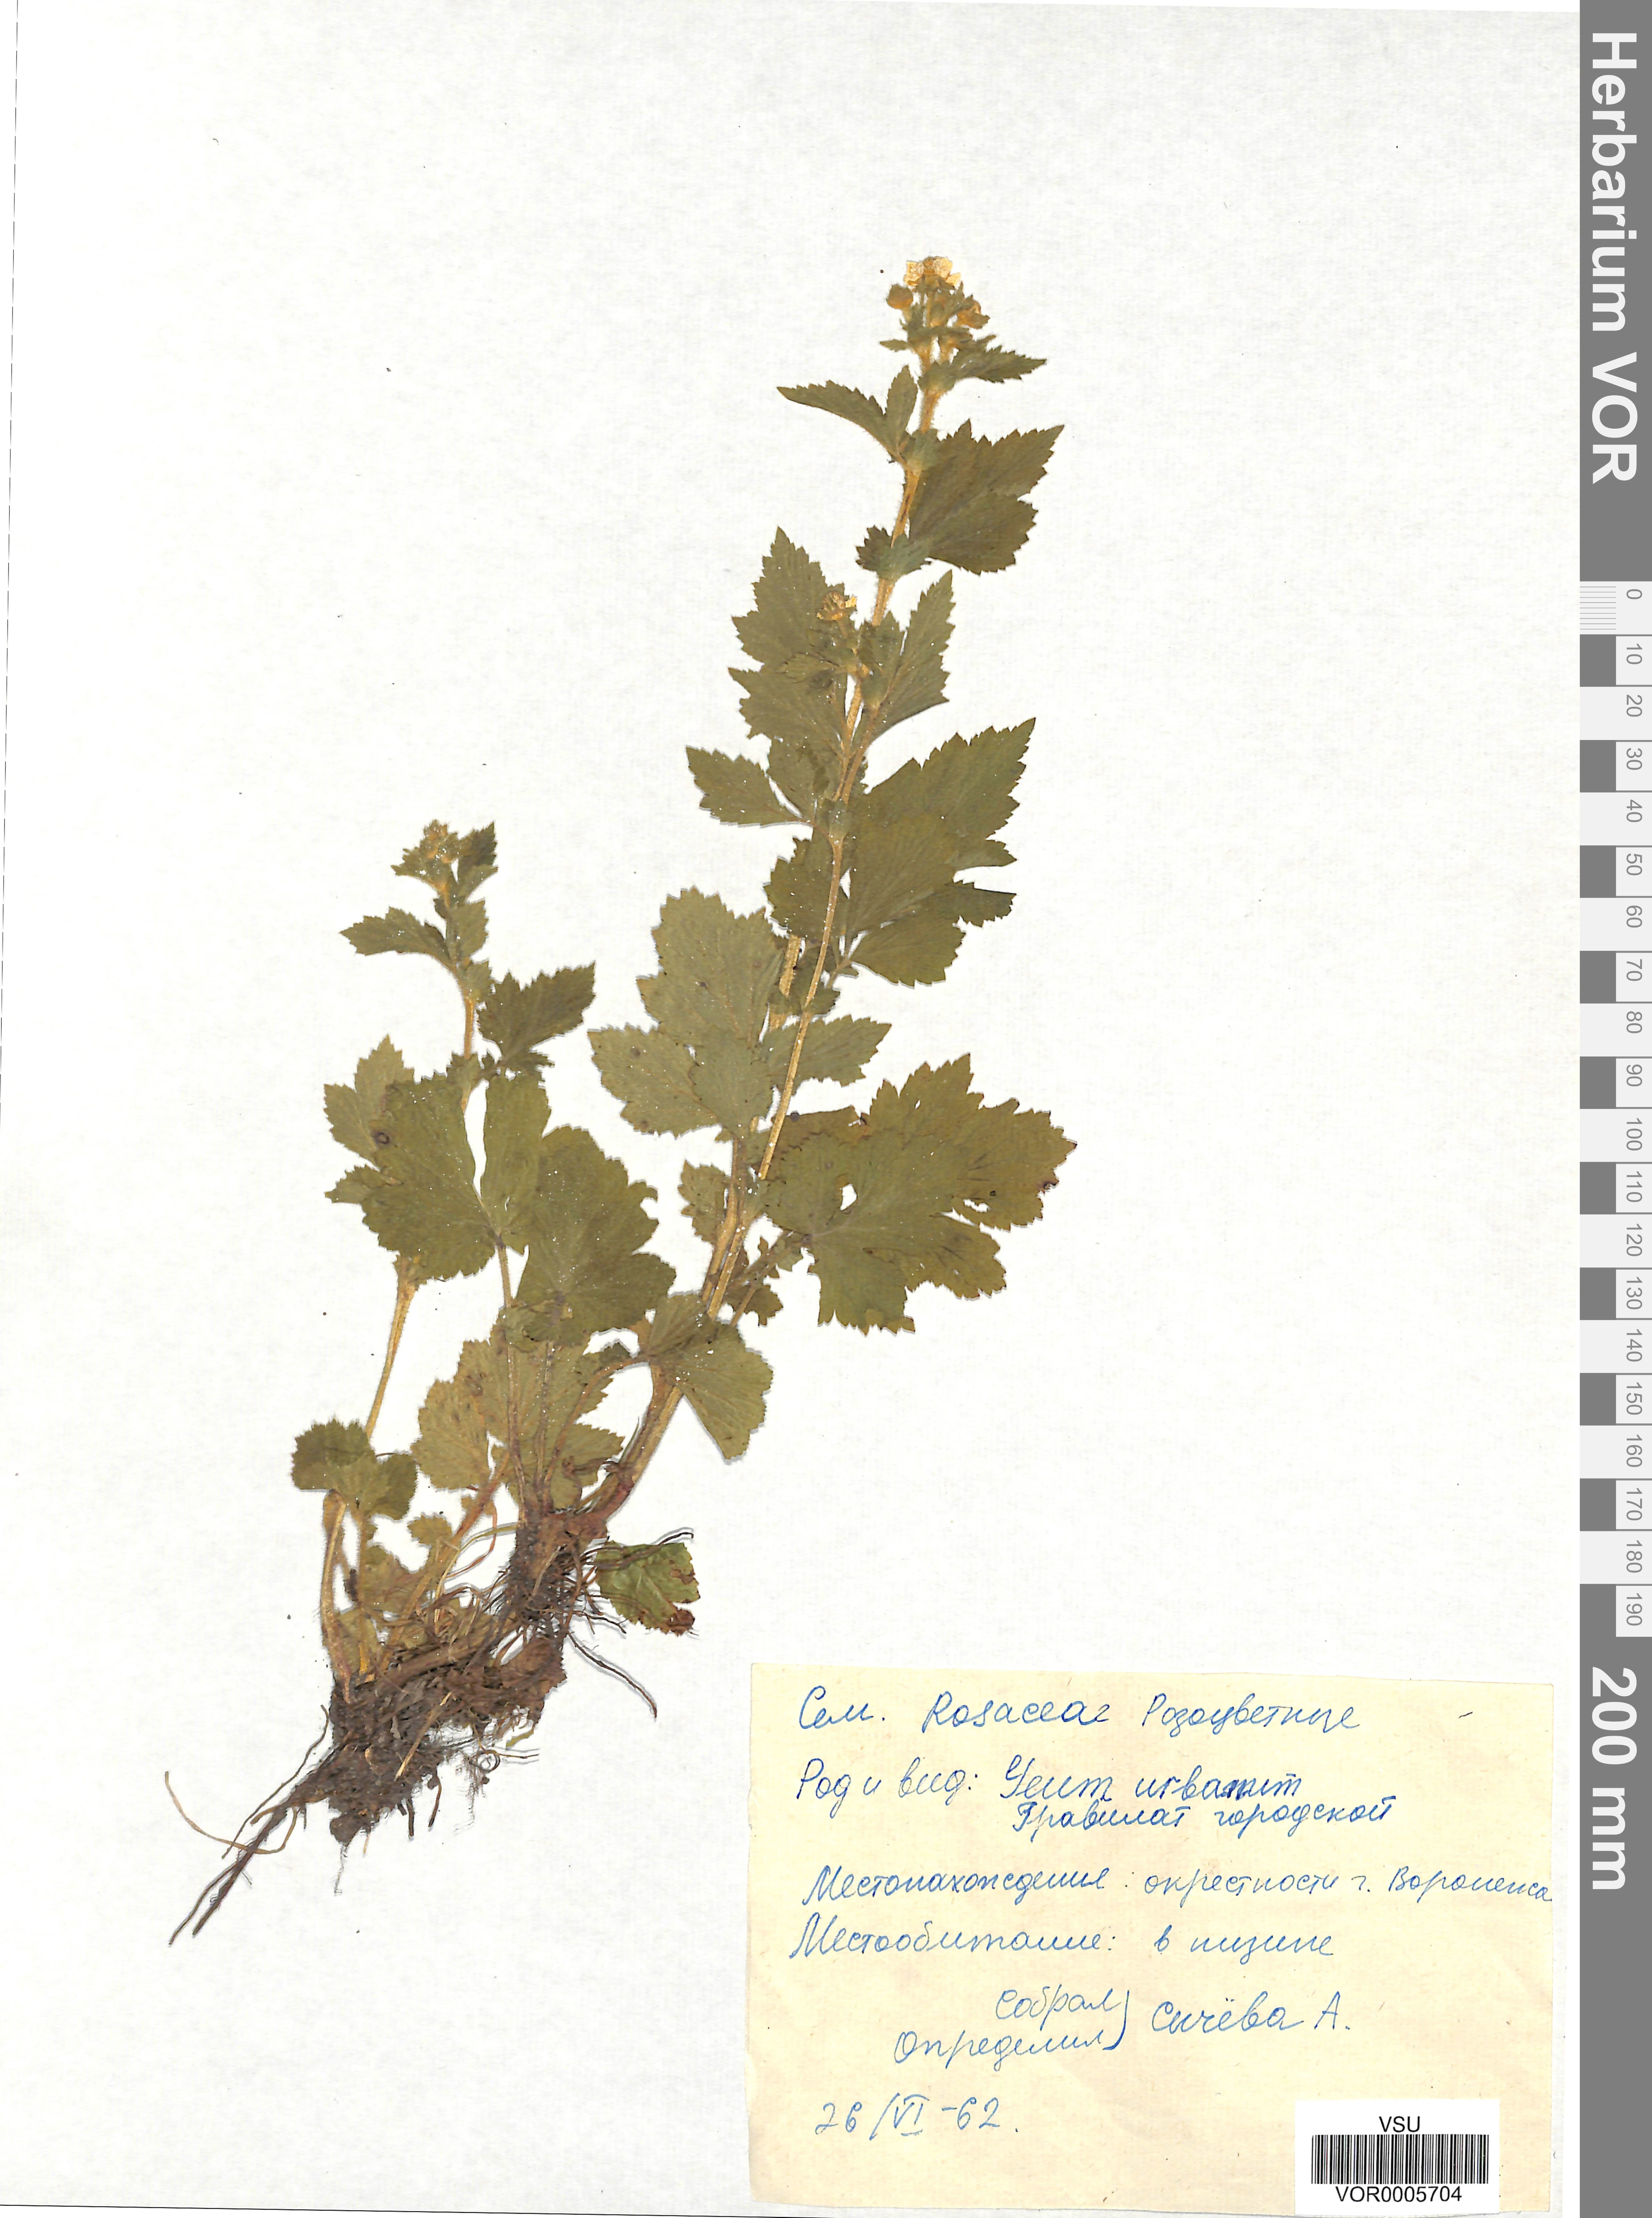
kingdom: Plantae
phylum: Tracheophyta
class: Magnoliopsida
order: Rosales
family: Rosaceae
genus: Geum
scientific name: Geum urbanum
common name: Wood avens
